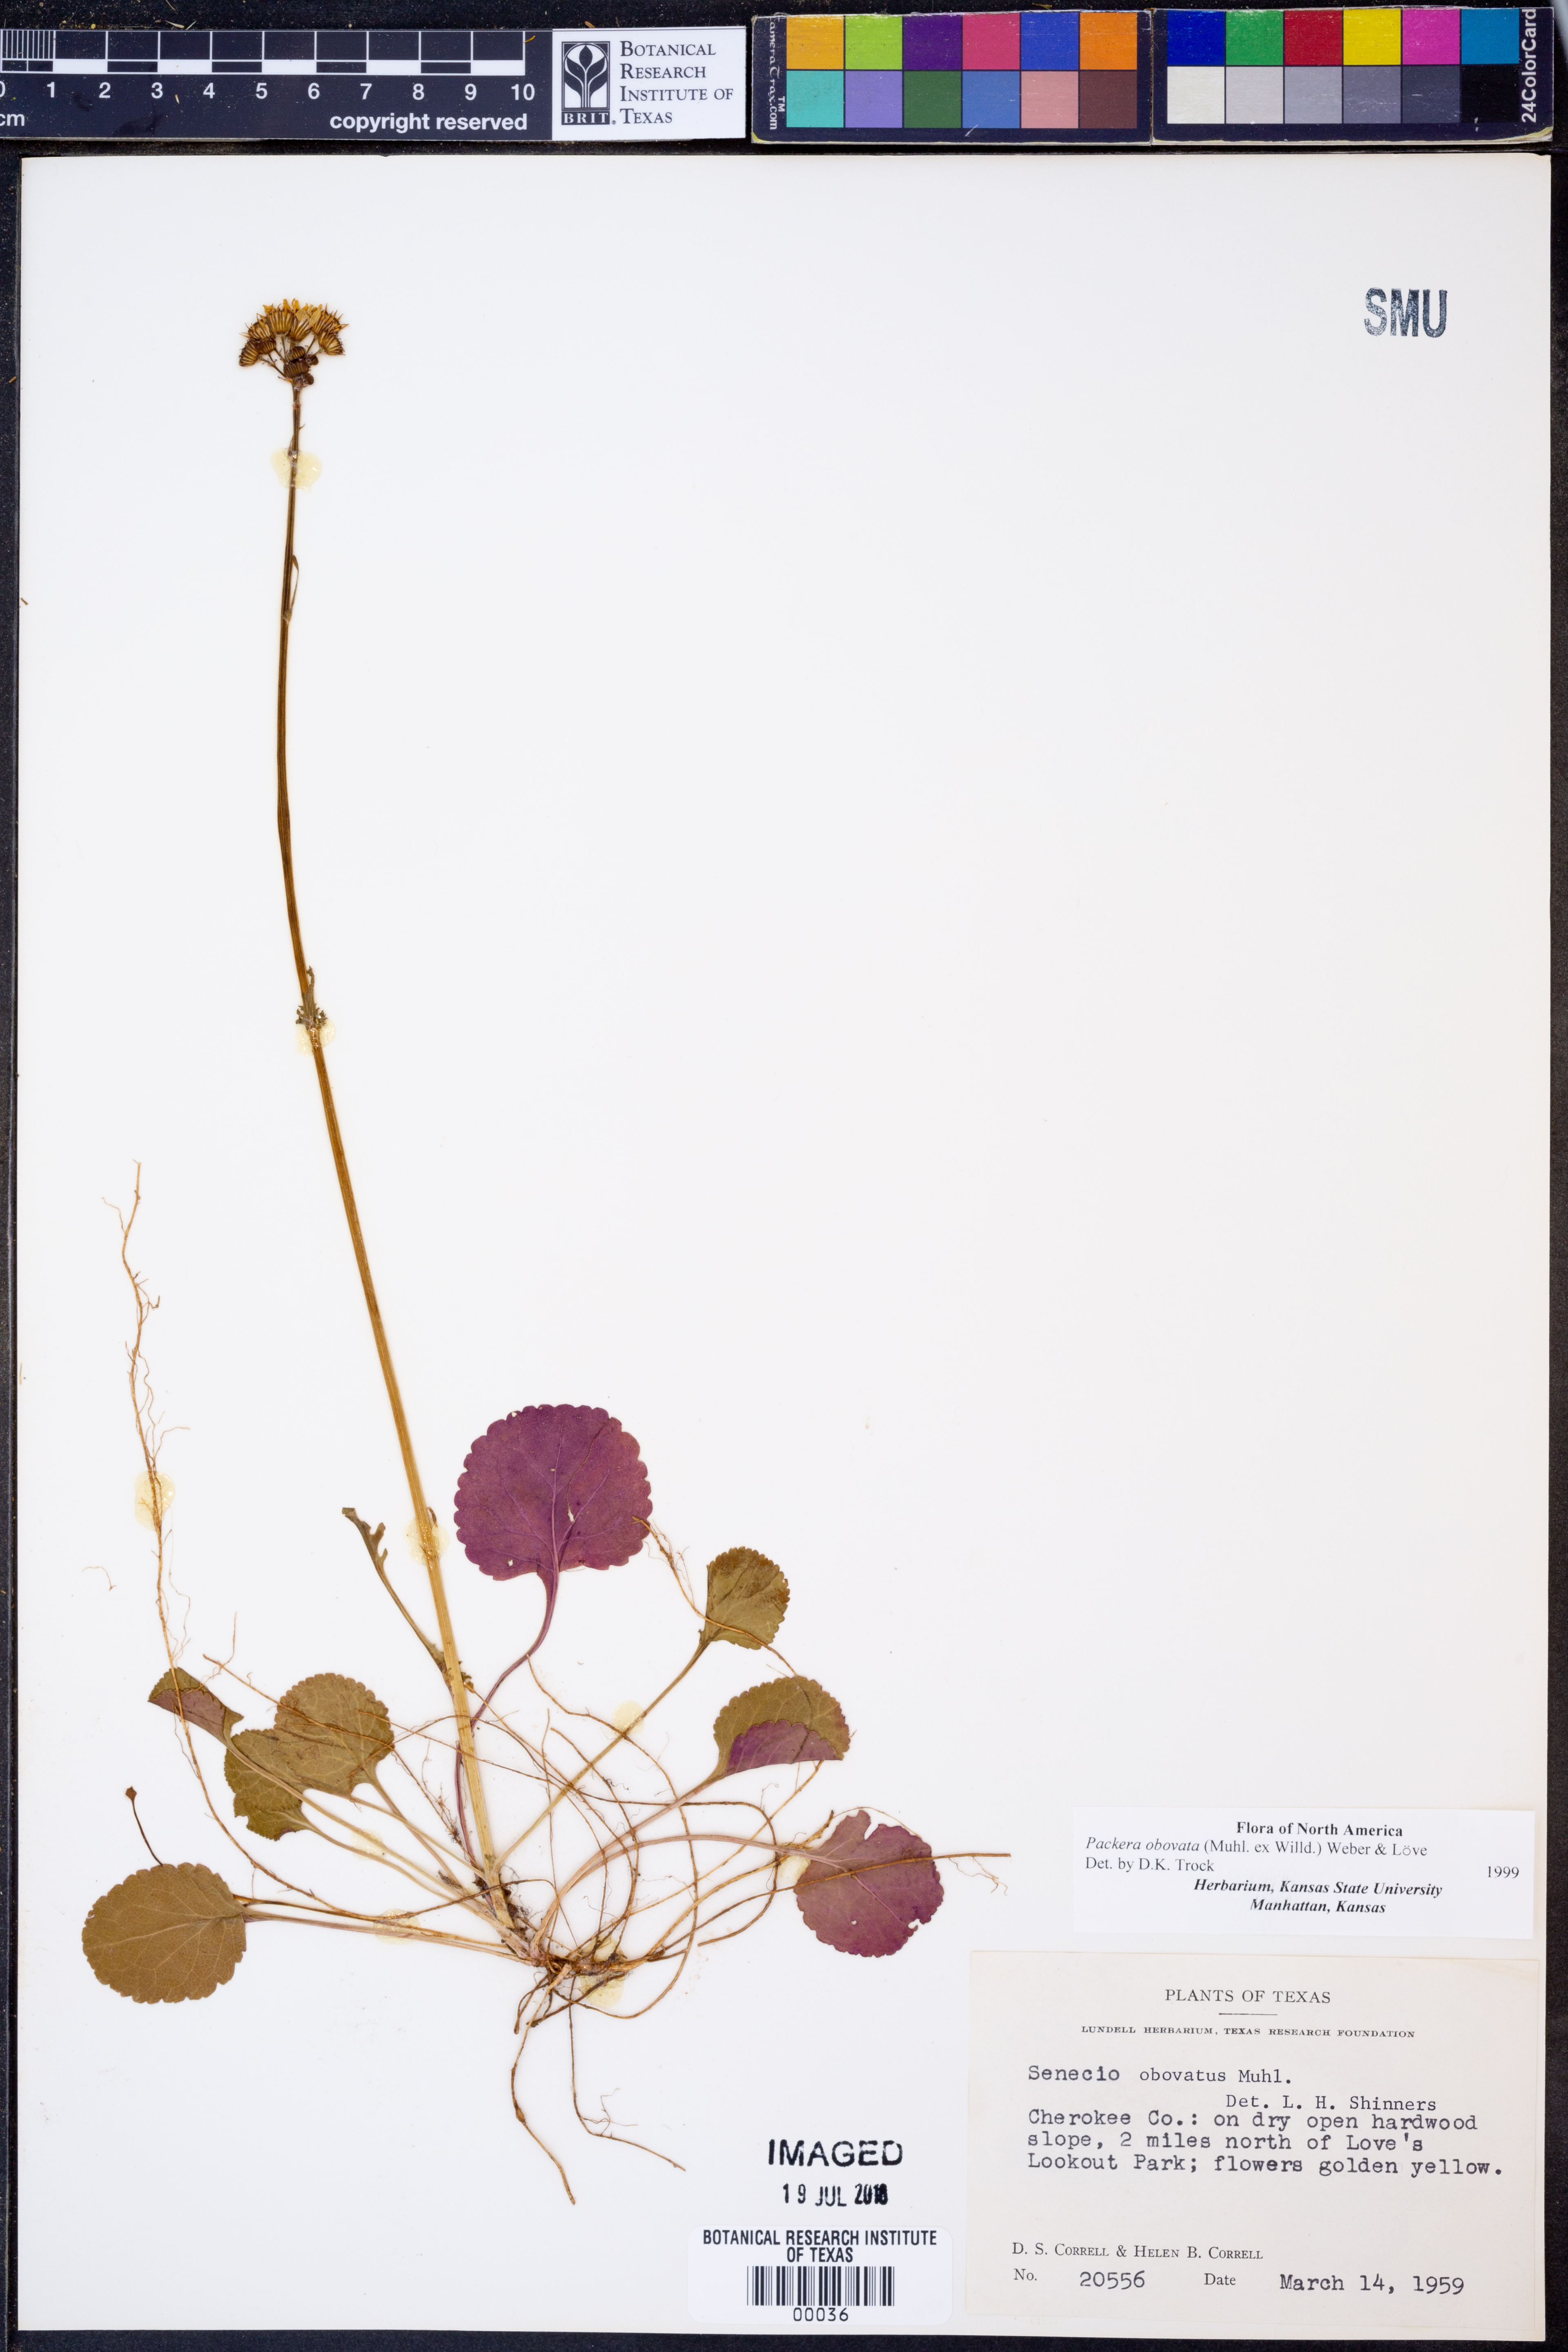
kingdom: Plantae
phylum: Tracheophyta
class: Magnoliopsida
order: Asterales
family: Asteraceae
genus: Packera
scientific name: Packera obovata
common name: Round-leaf ragwort
